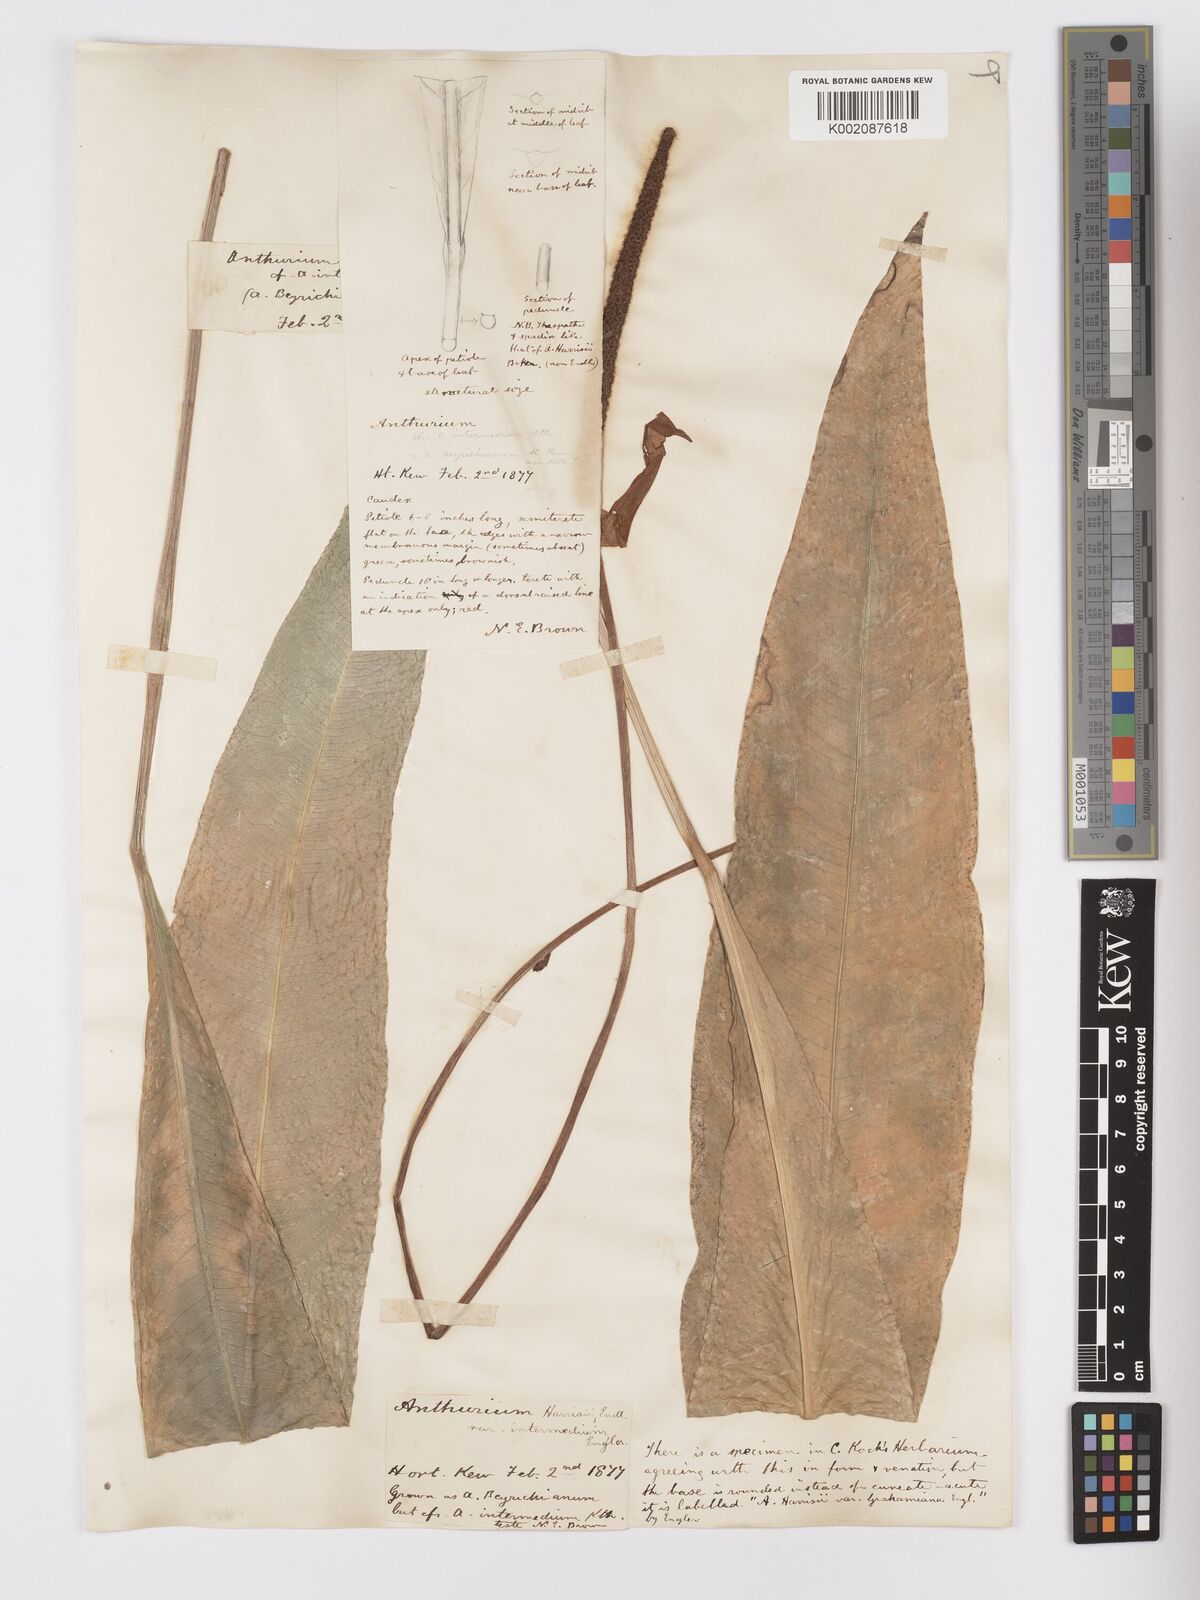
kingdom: Plantae
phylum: Tracheophyta
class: Liliopsida
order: Alismatales
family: Araceae
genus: Anthurium
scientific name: Anthurium intermedium
